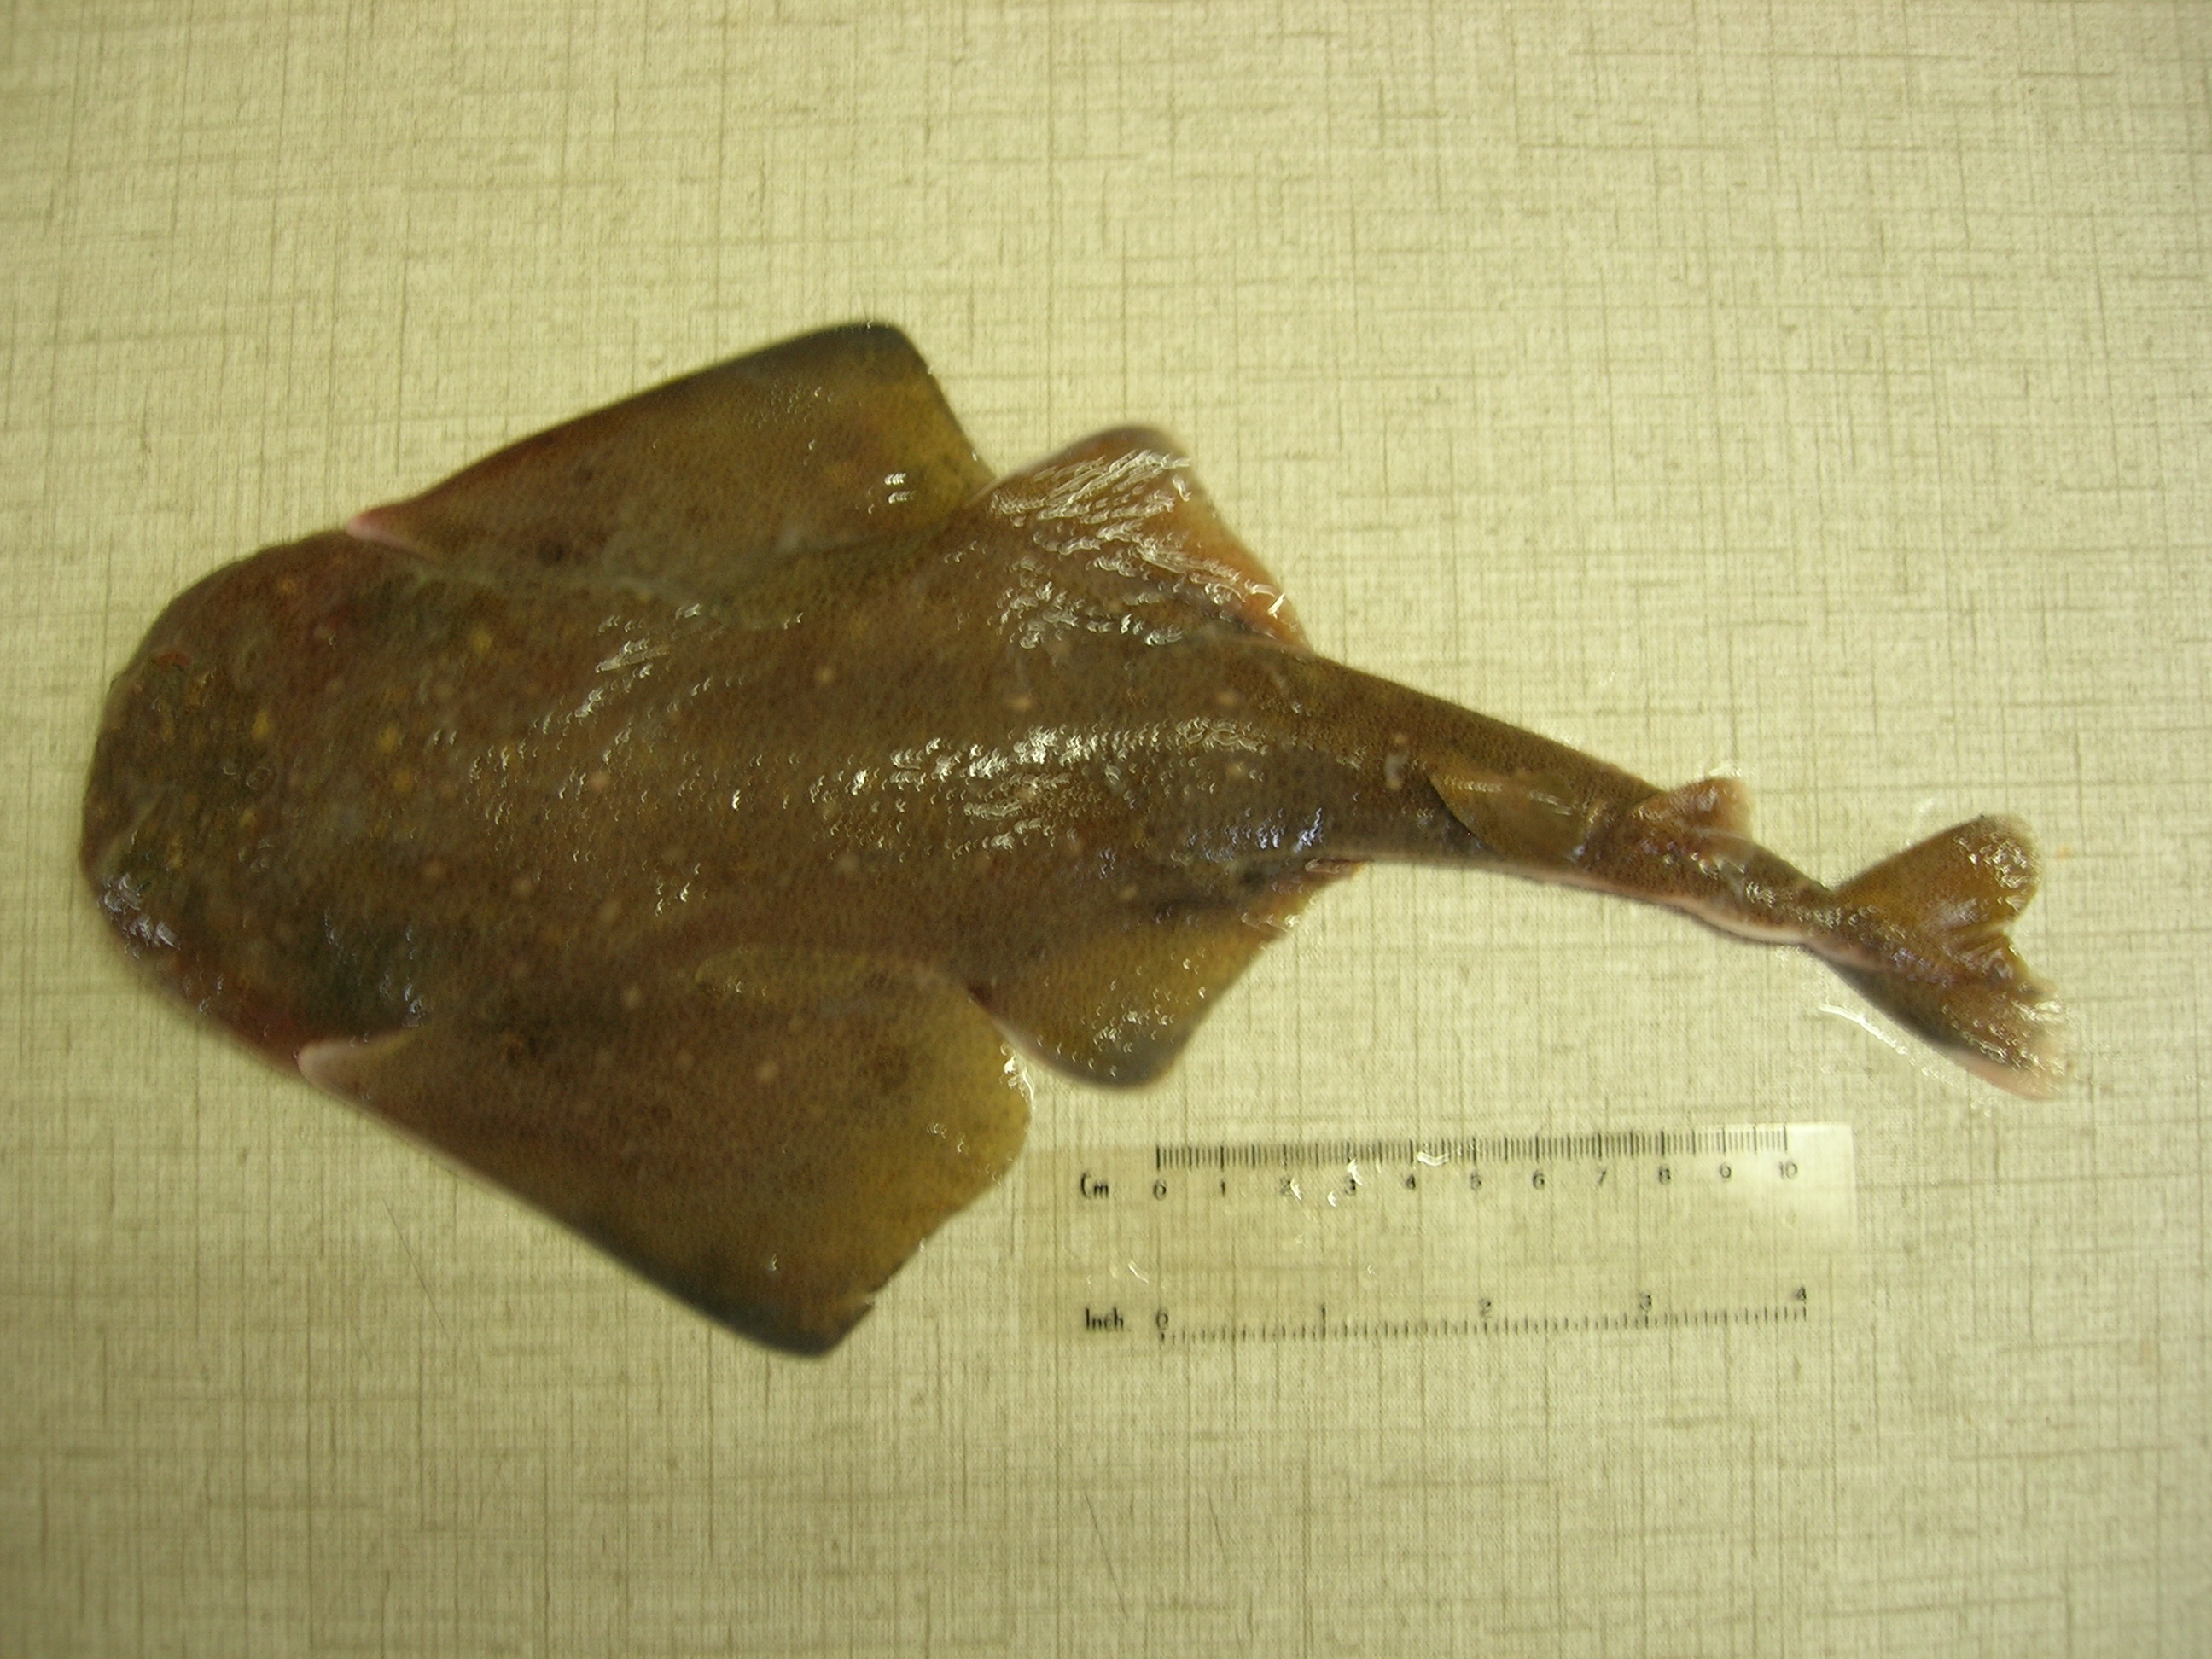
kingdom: Animalia
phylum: Chordata
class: Elasmobranchii
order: Squatiniformes
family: Squatinidae
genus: Squatina
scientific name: Squatina africana
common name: African angelshark
